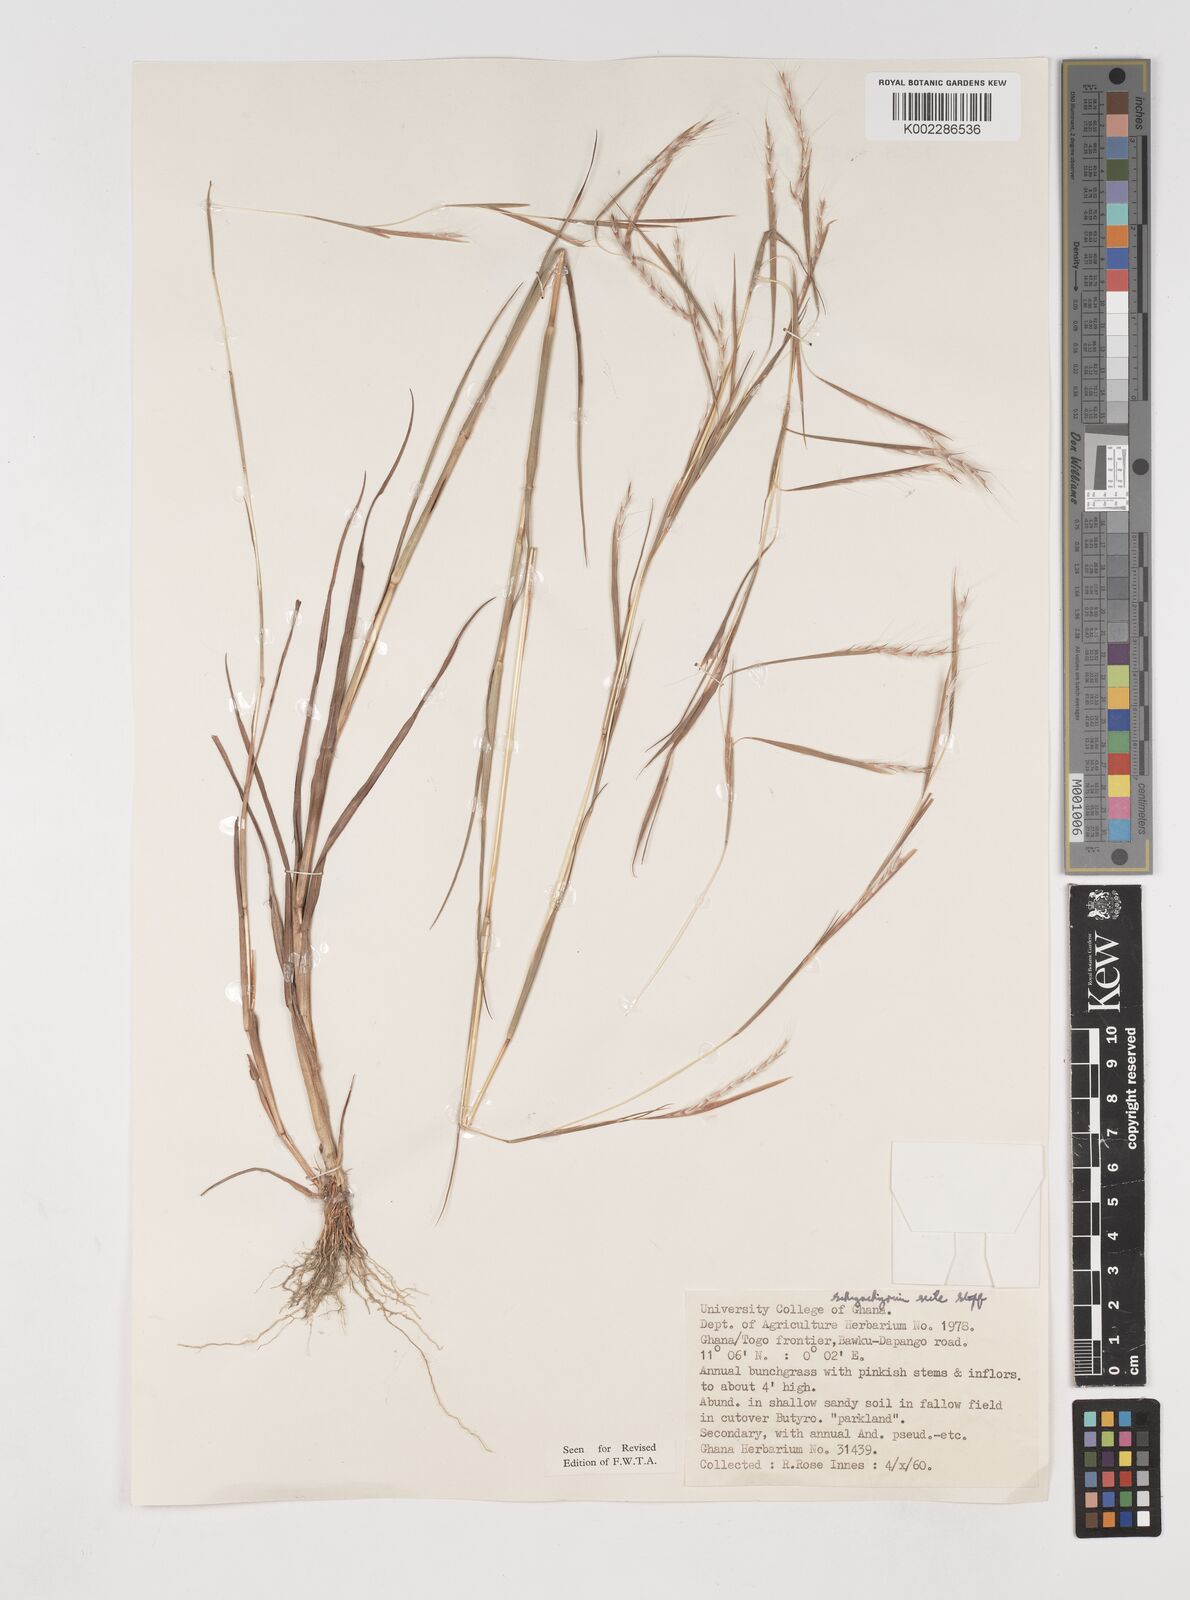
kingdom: Plantae
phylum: Tracheophyta
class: Liliopsida
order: Poales
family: Poaceae
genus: Schizachyrium
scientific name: Schizachyrium exile
